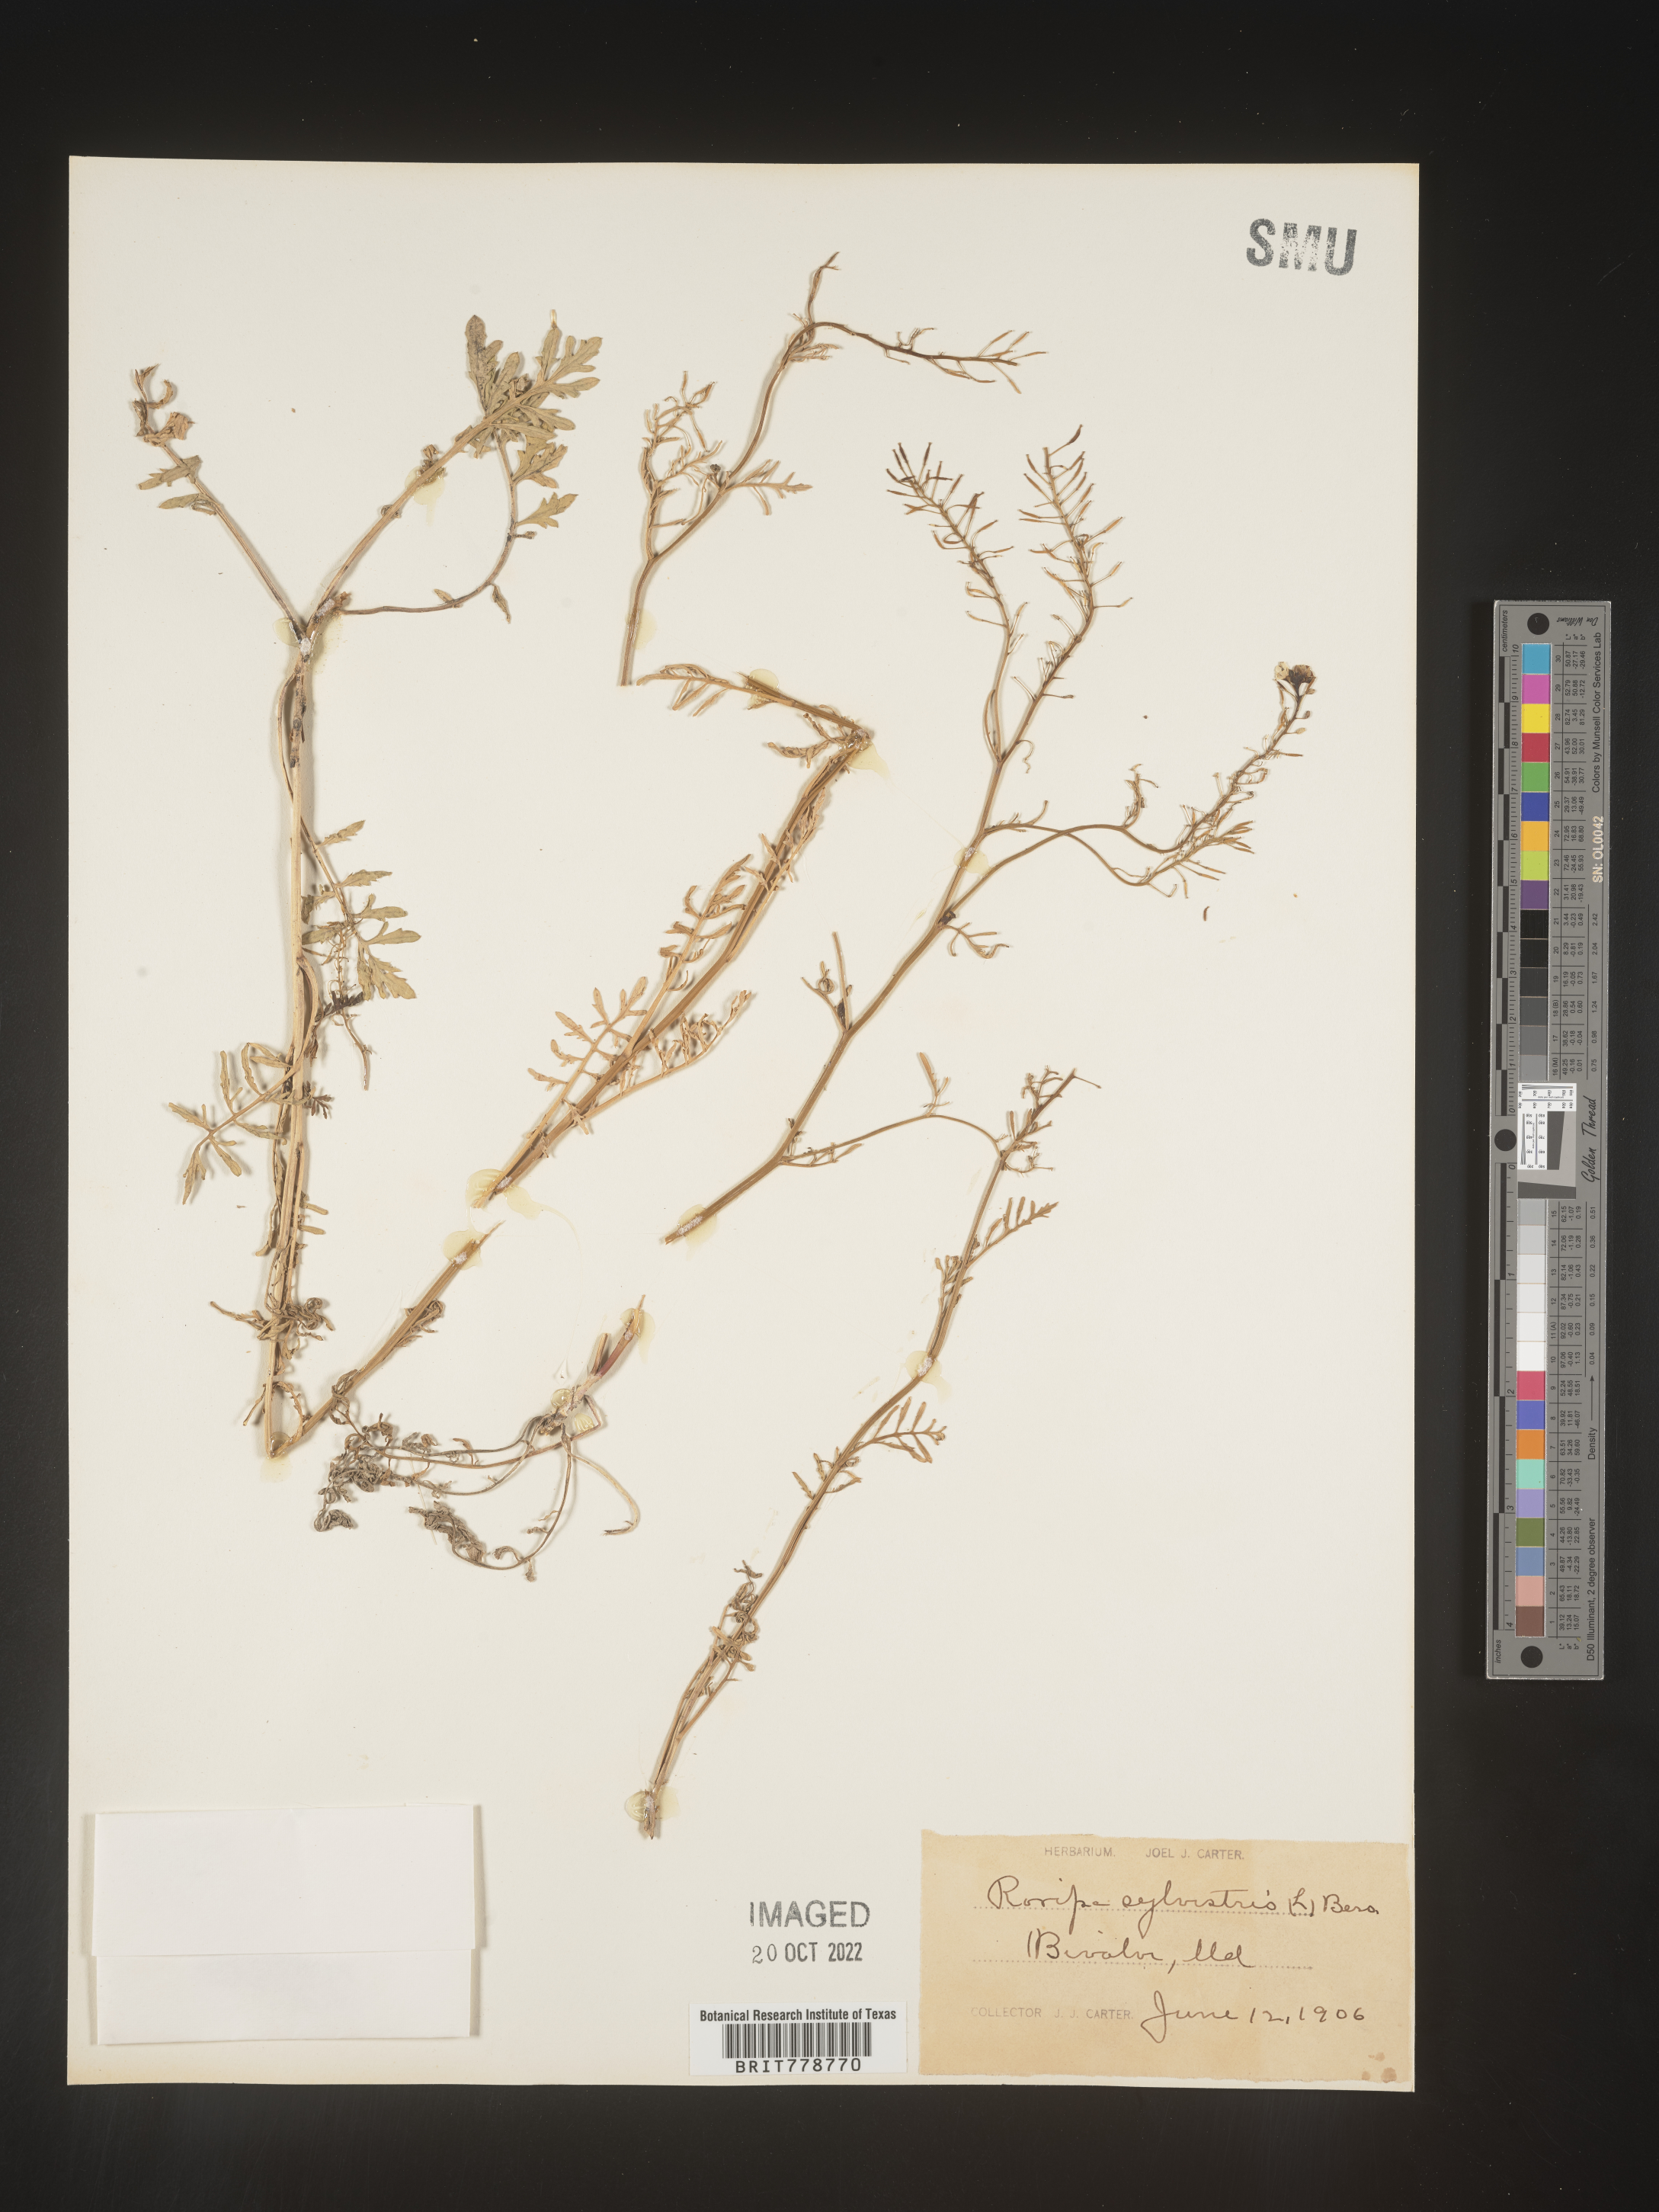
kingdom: Plantae
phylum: Tracheophyta
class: Magnoliopsida
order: Brassicales
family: Brassicaceae
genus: Rorippa
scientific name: Rorippa sylvestris
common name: Creeping yellowcress
